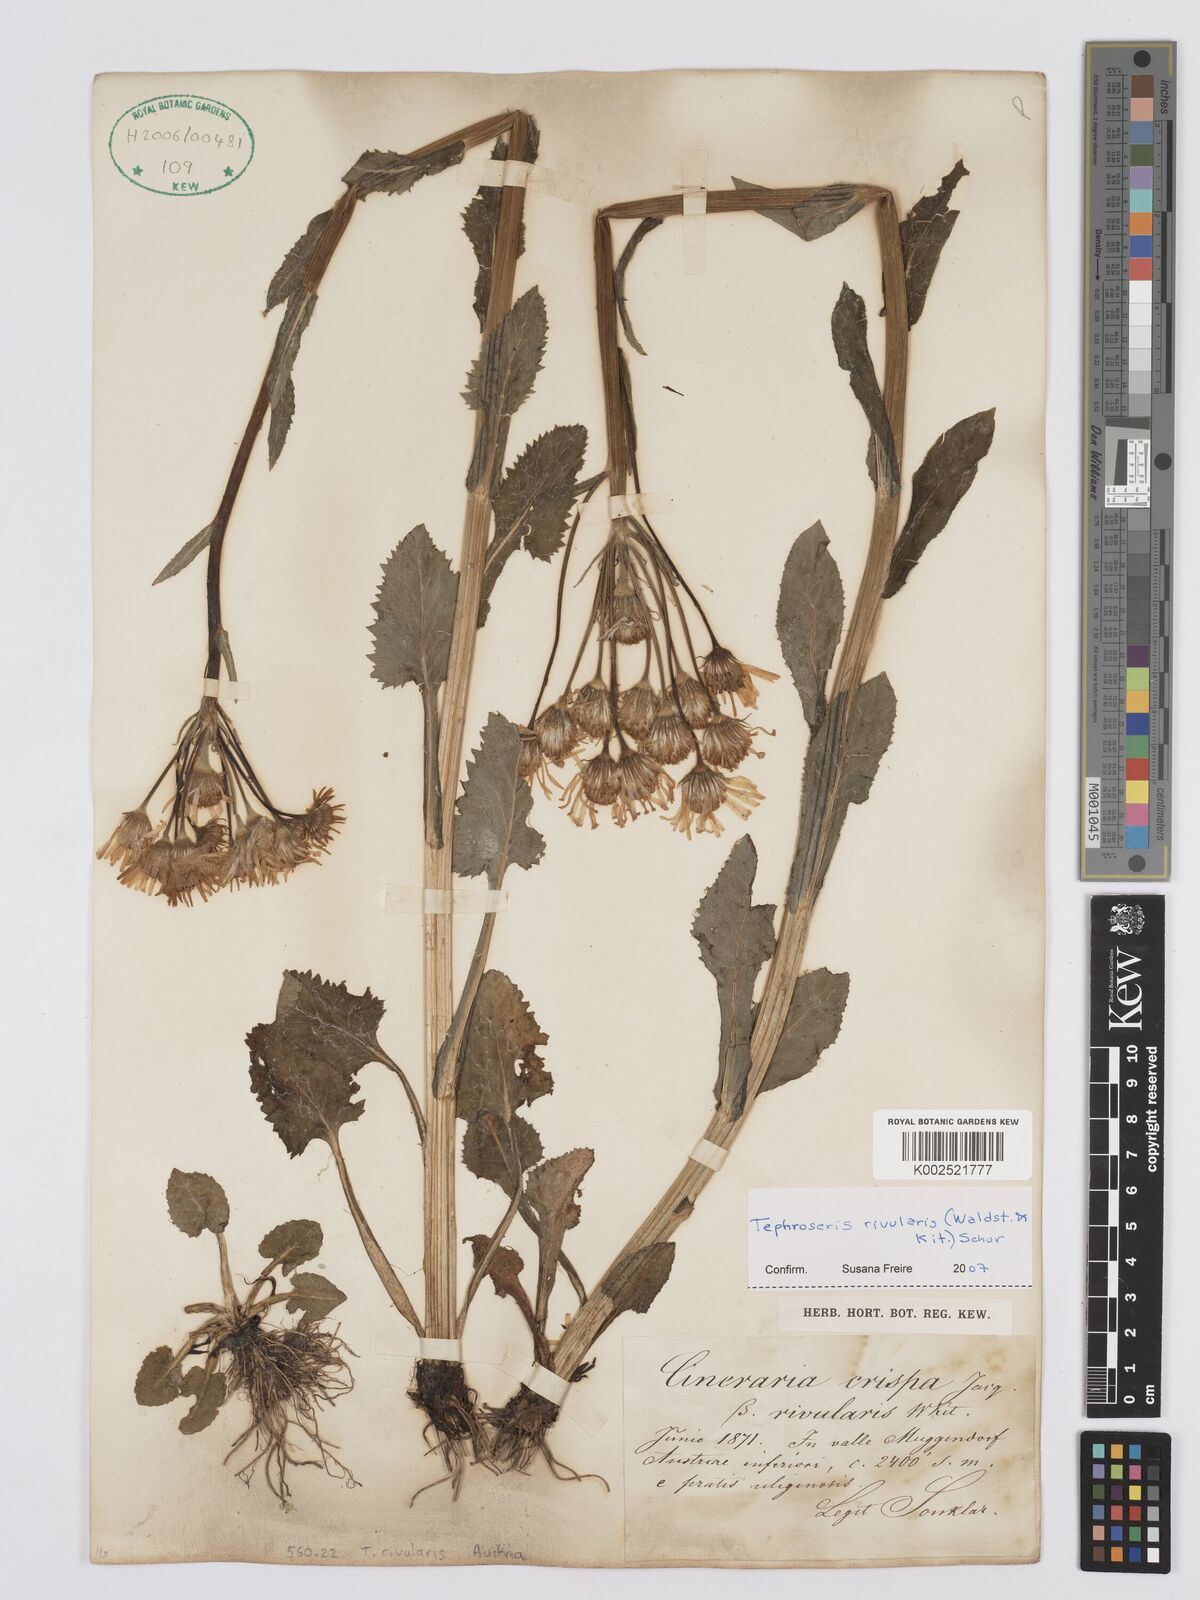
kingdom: Plantae
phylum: Tracheophyta
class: Magnoliopsida
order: Asterales
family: Asteraceae
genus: Tephroseris
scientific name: Tephroseris crispa
